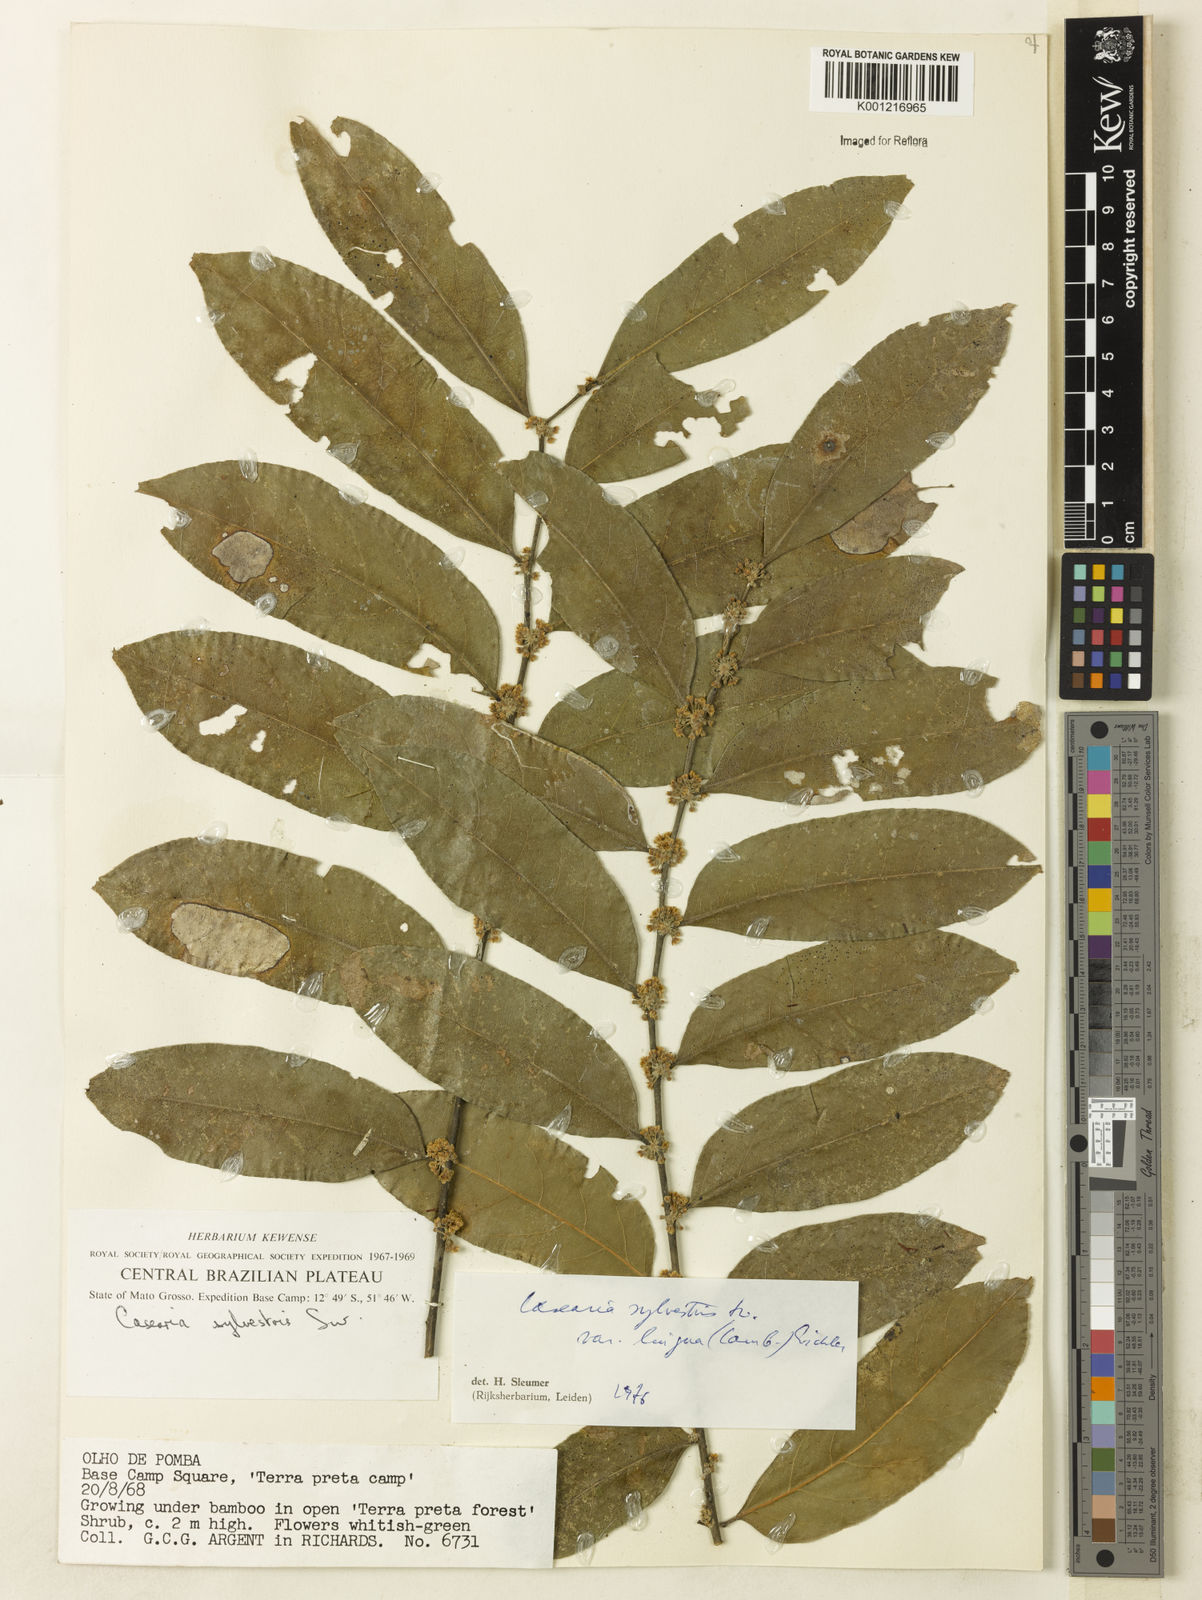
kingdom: Plantae
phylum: Tracheophyta
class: Magnoliopsida
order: Malpighiales
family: Salicaceae
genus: Casearia
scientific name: Casearia sylvestris
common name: Wild sage
